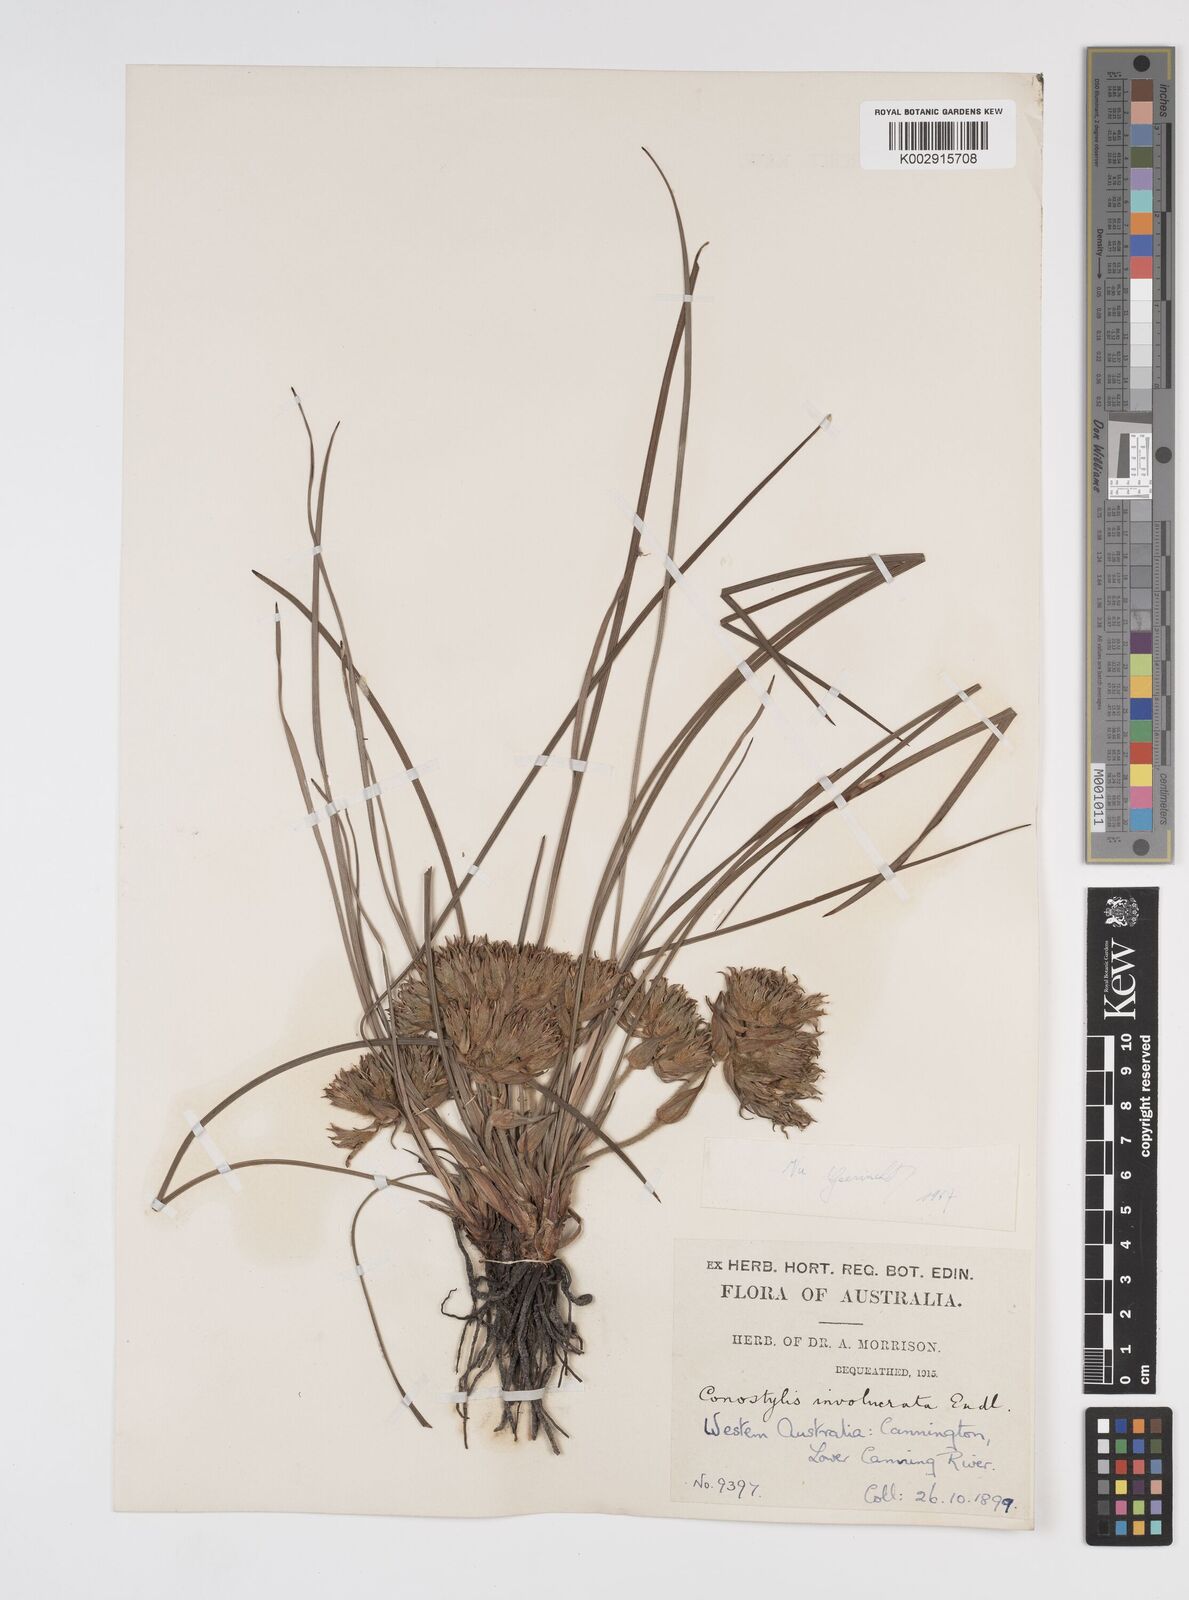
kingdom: Plantae
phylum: Tracheophyta
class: Liliopsida
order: Commelinales
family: Haemodoraceae
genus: Conostylis
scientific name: Conostylis juncea
